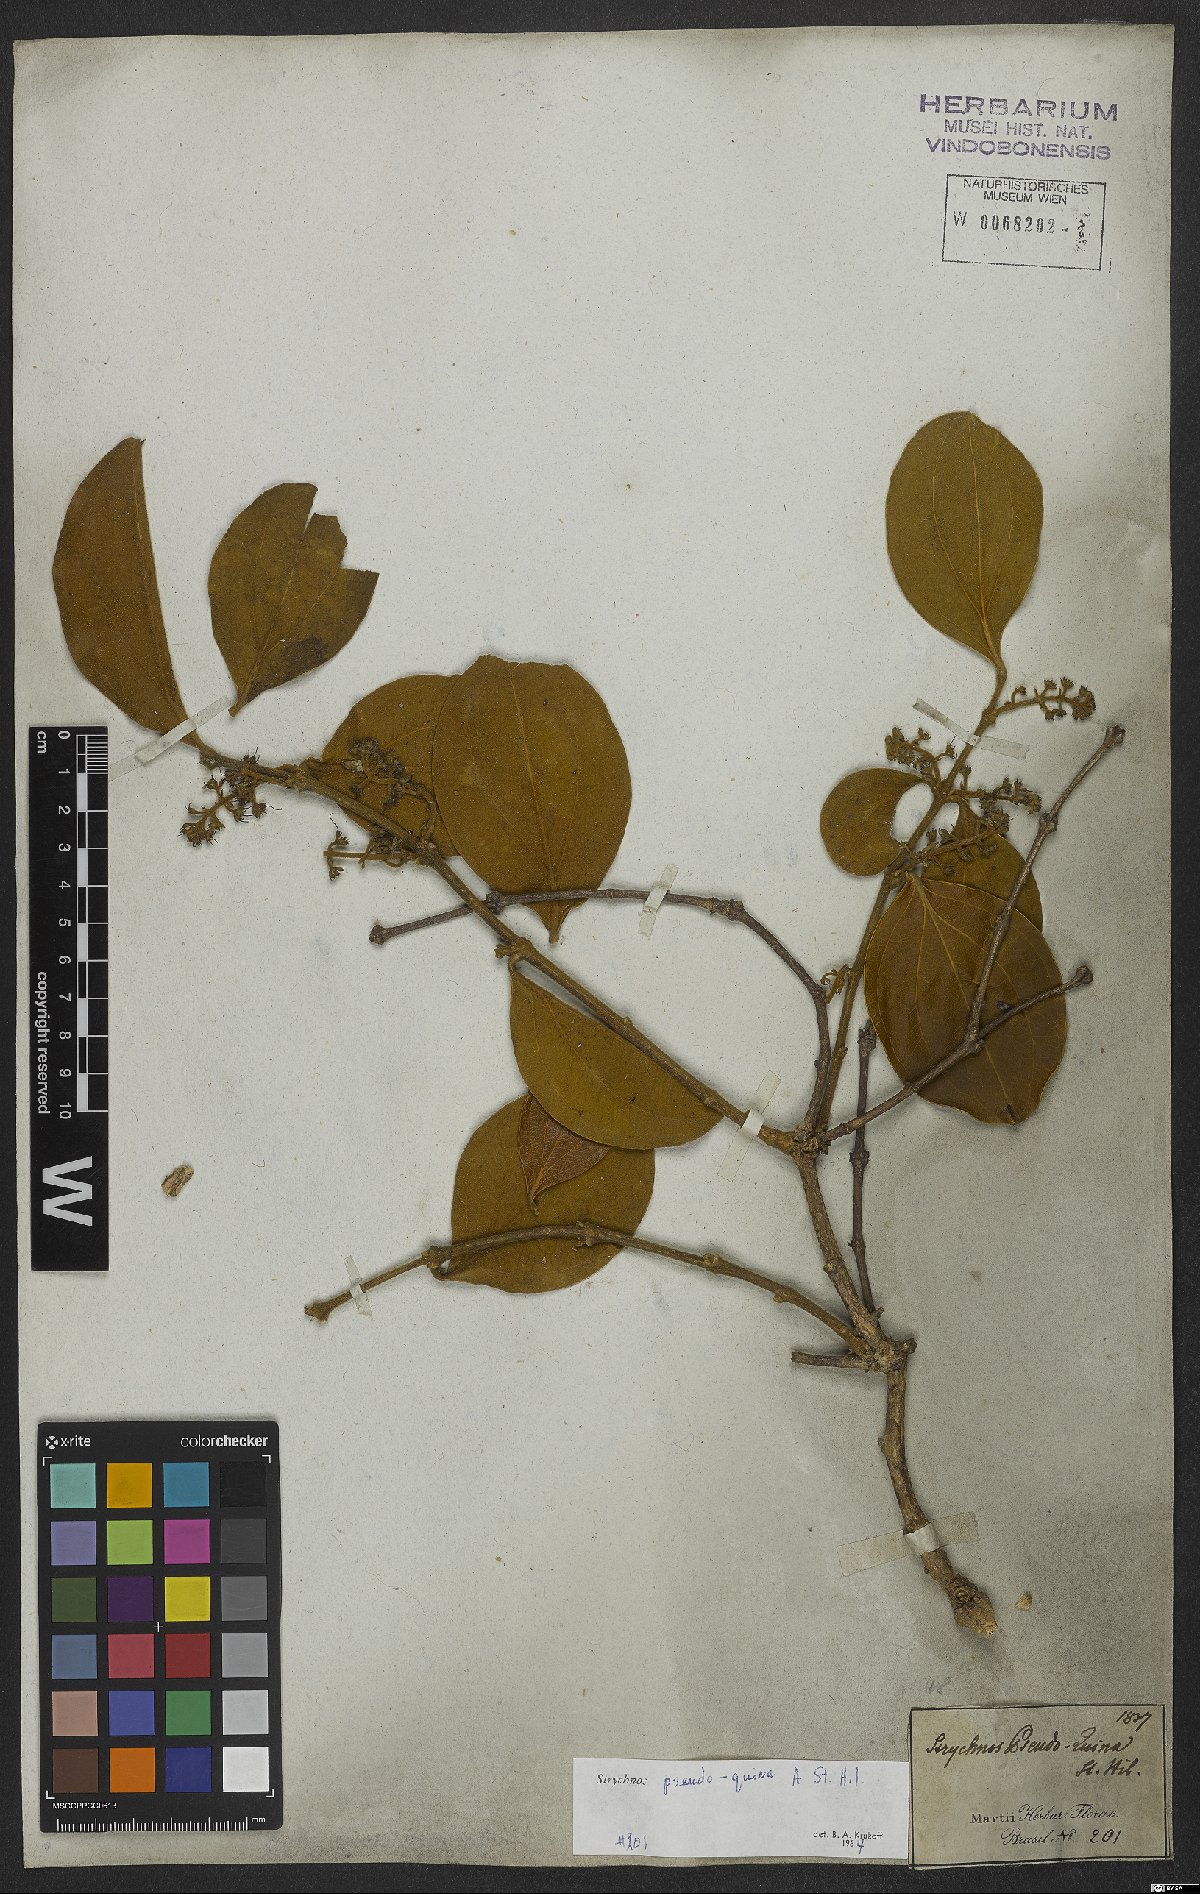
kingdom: Plantae
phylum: Tracheophyta
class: Magnoliopsida
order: Gentianales
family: Loganiaceae
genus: Strychnos
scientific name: Strychnos pseudoquina
